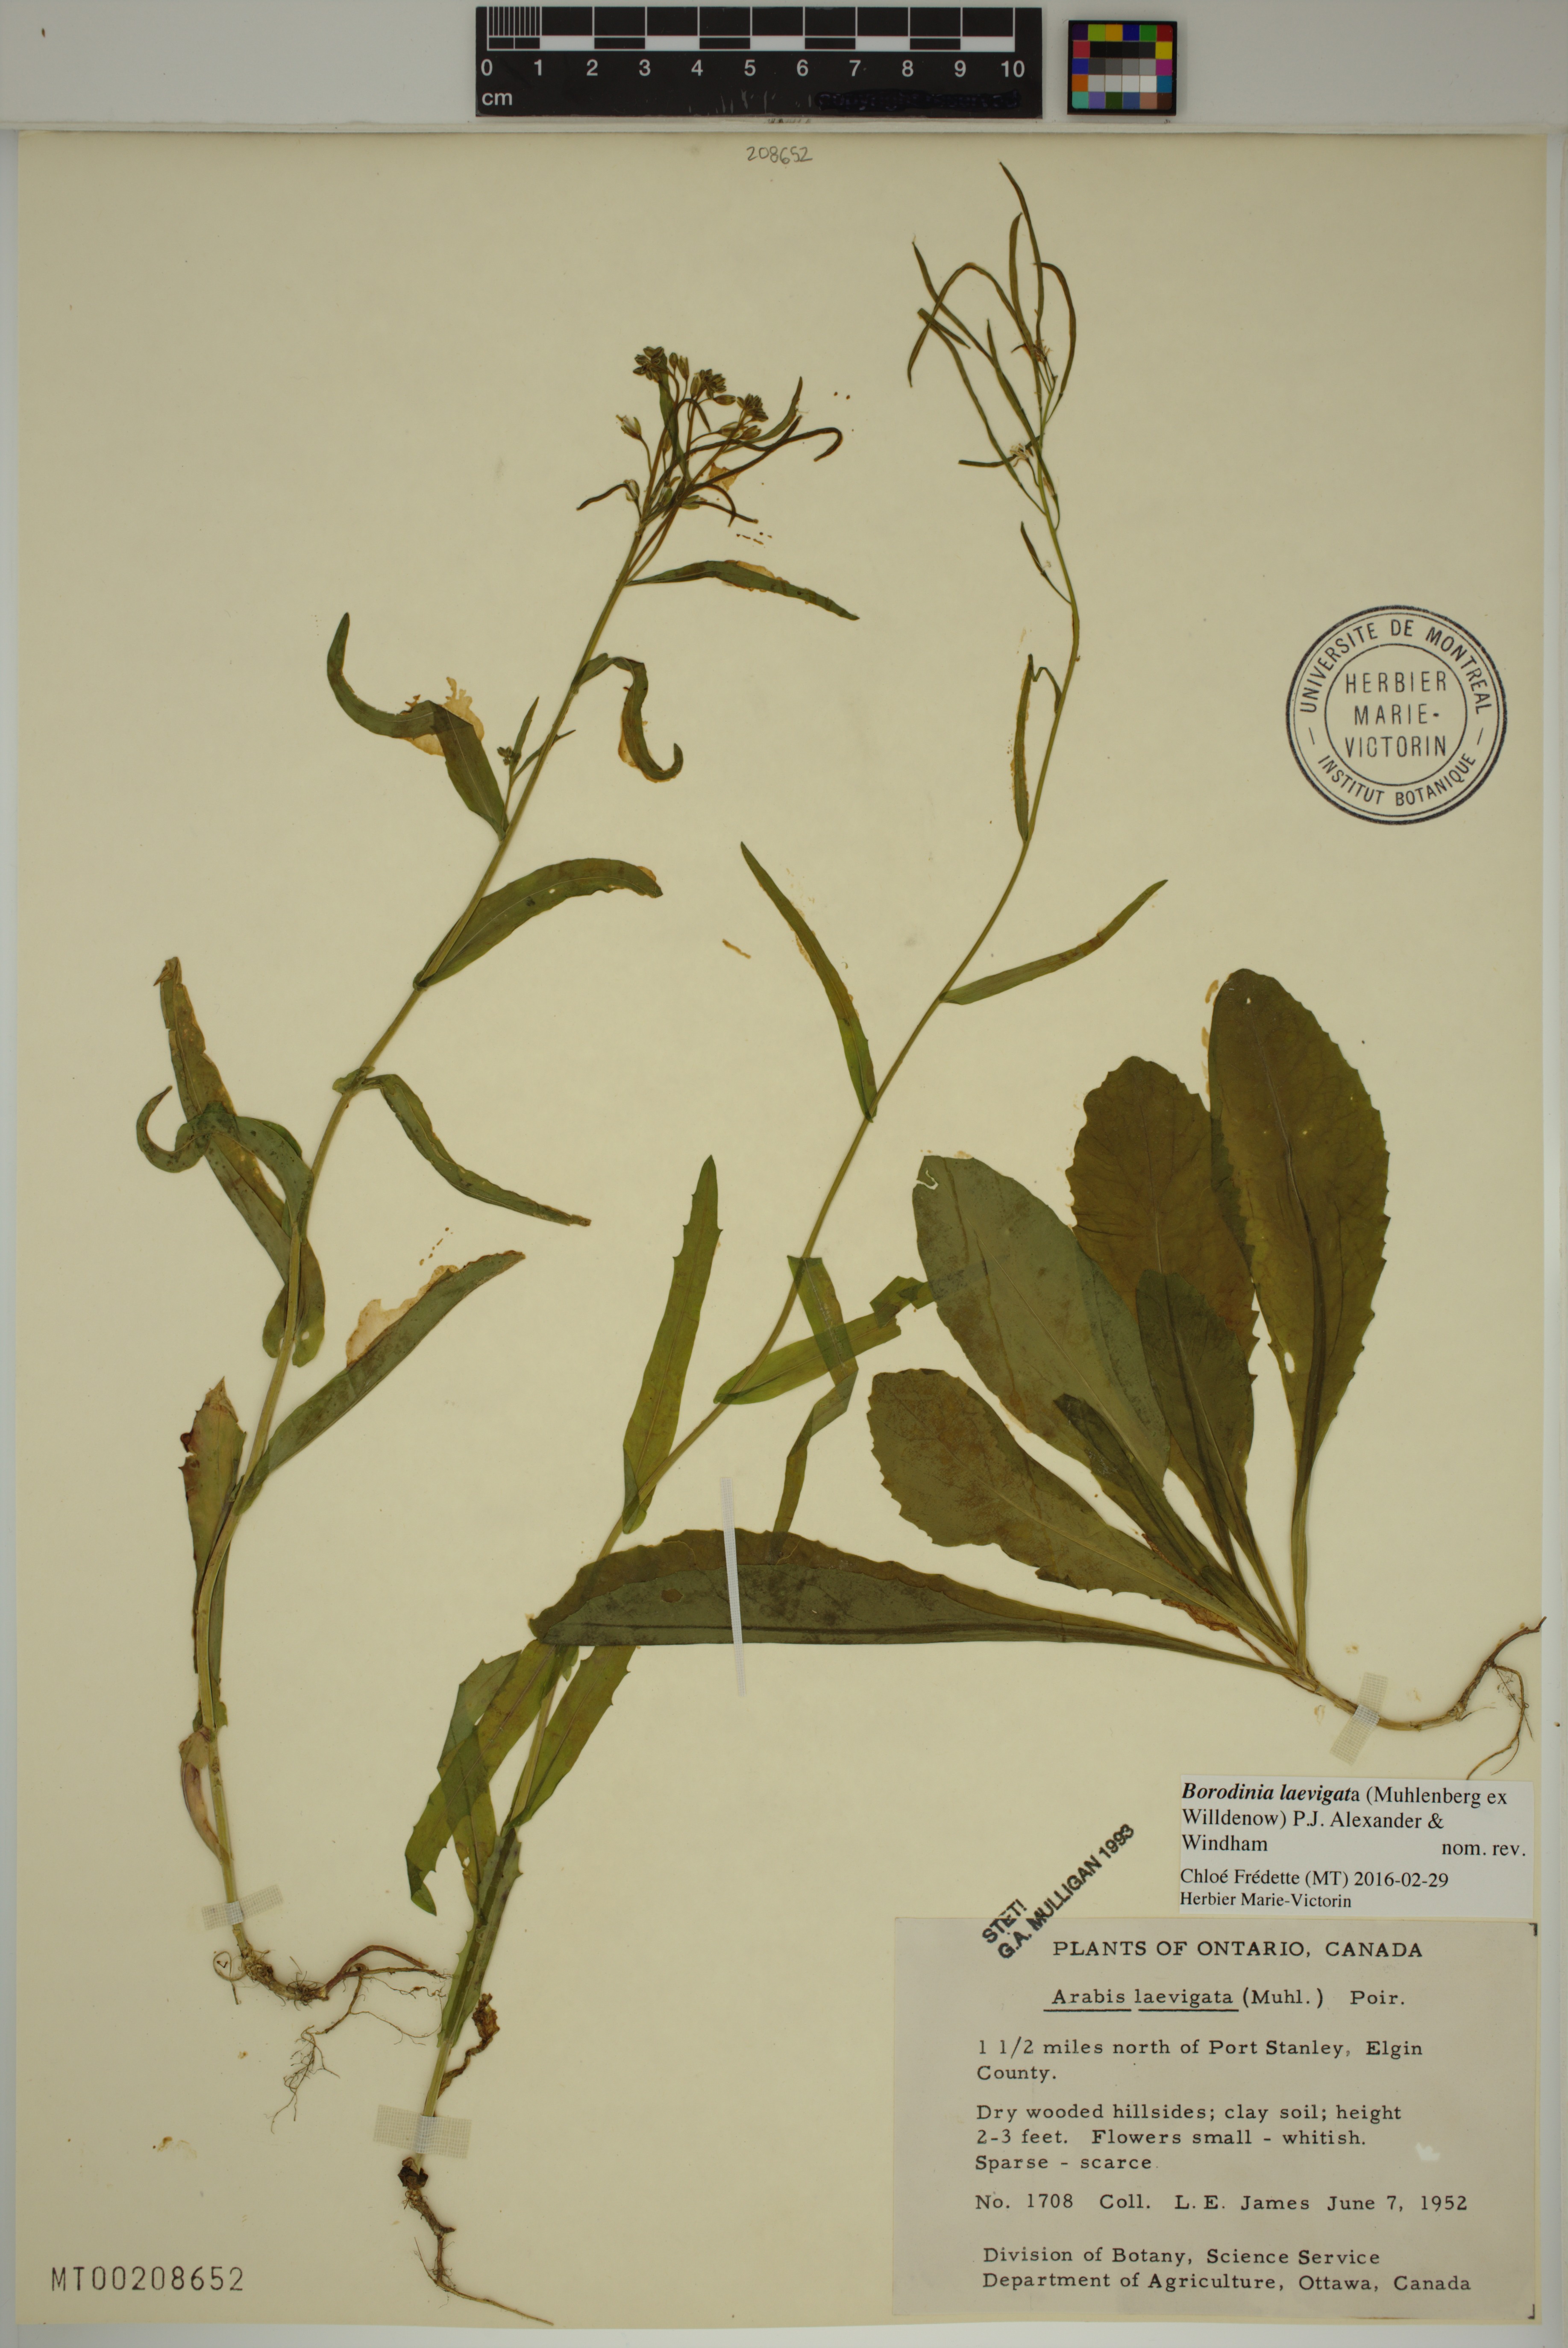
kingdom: Plantae
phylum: Tracheophyta
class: Magnoliopsida
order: Brassicales
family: Brassicaceae
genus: Borodinia
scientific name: Borodinia laevigata
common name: Smooth rockcress
